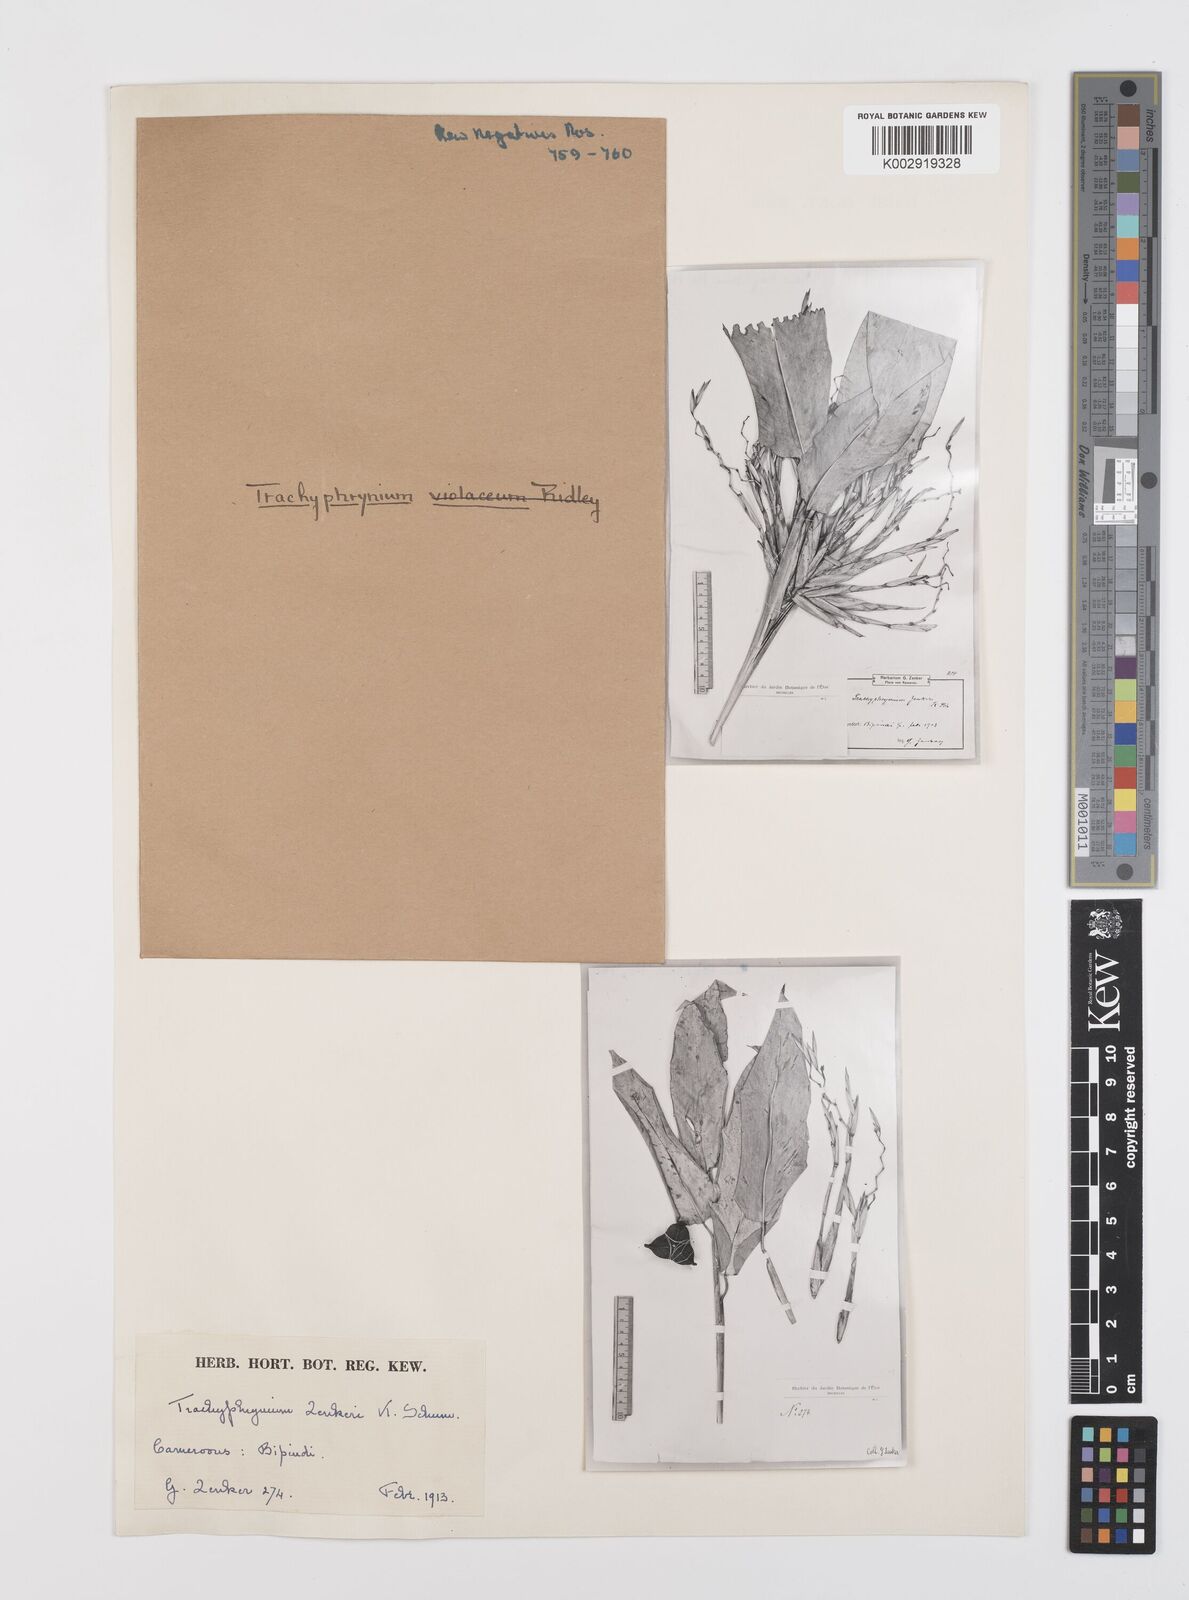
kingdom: Plantae
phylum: Tracheophyta
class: Liliopsida
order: Zingiberales
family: Marantaceae
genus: Hypselodelphys
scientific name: Hypselodelphys zenkeriana
